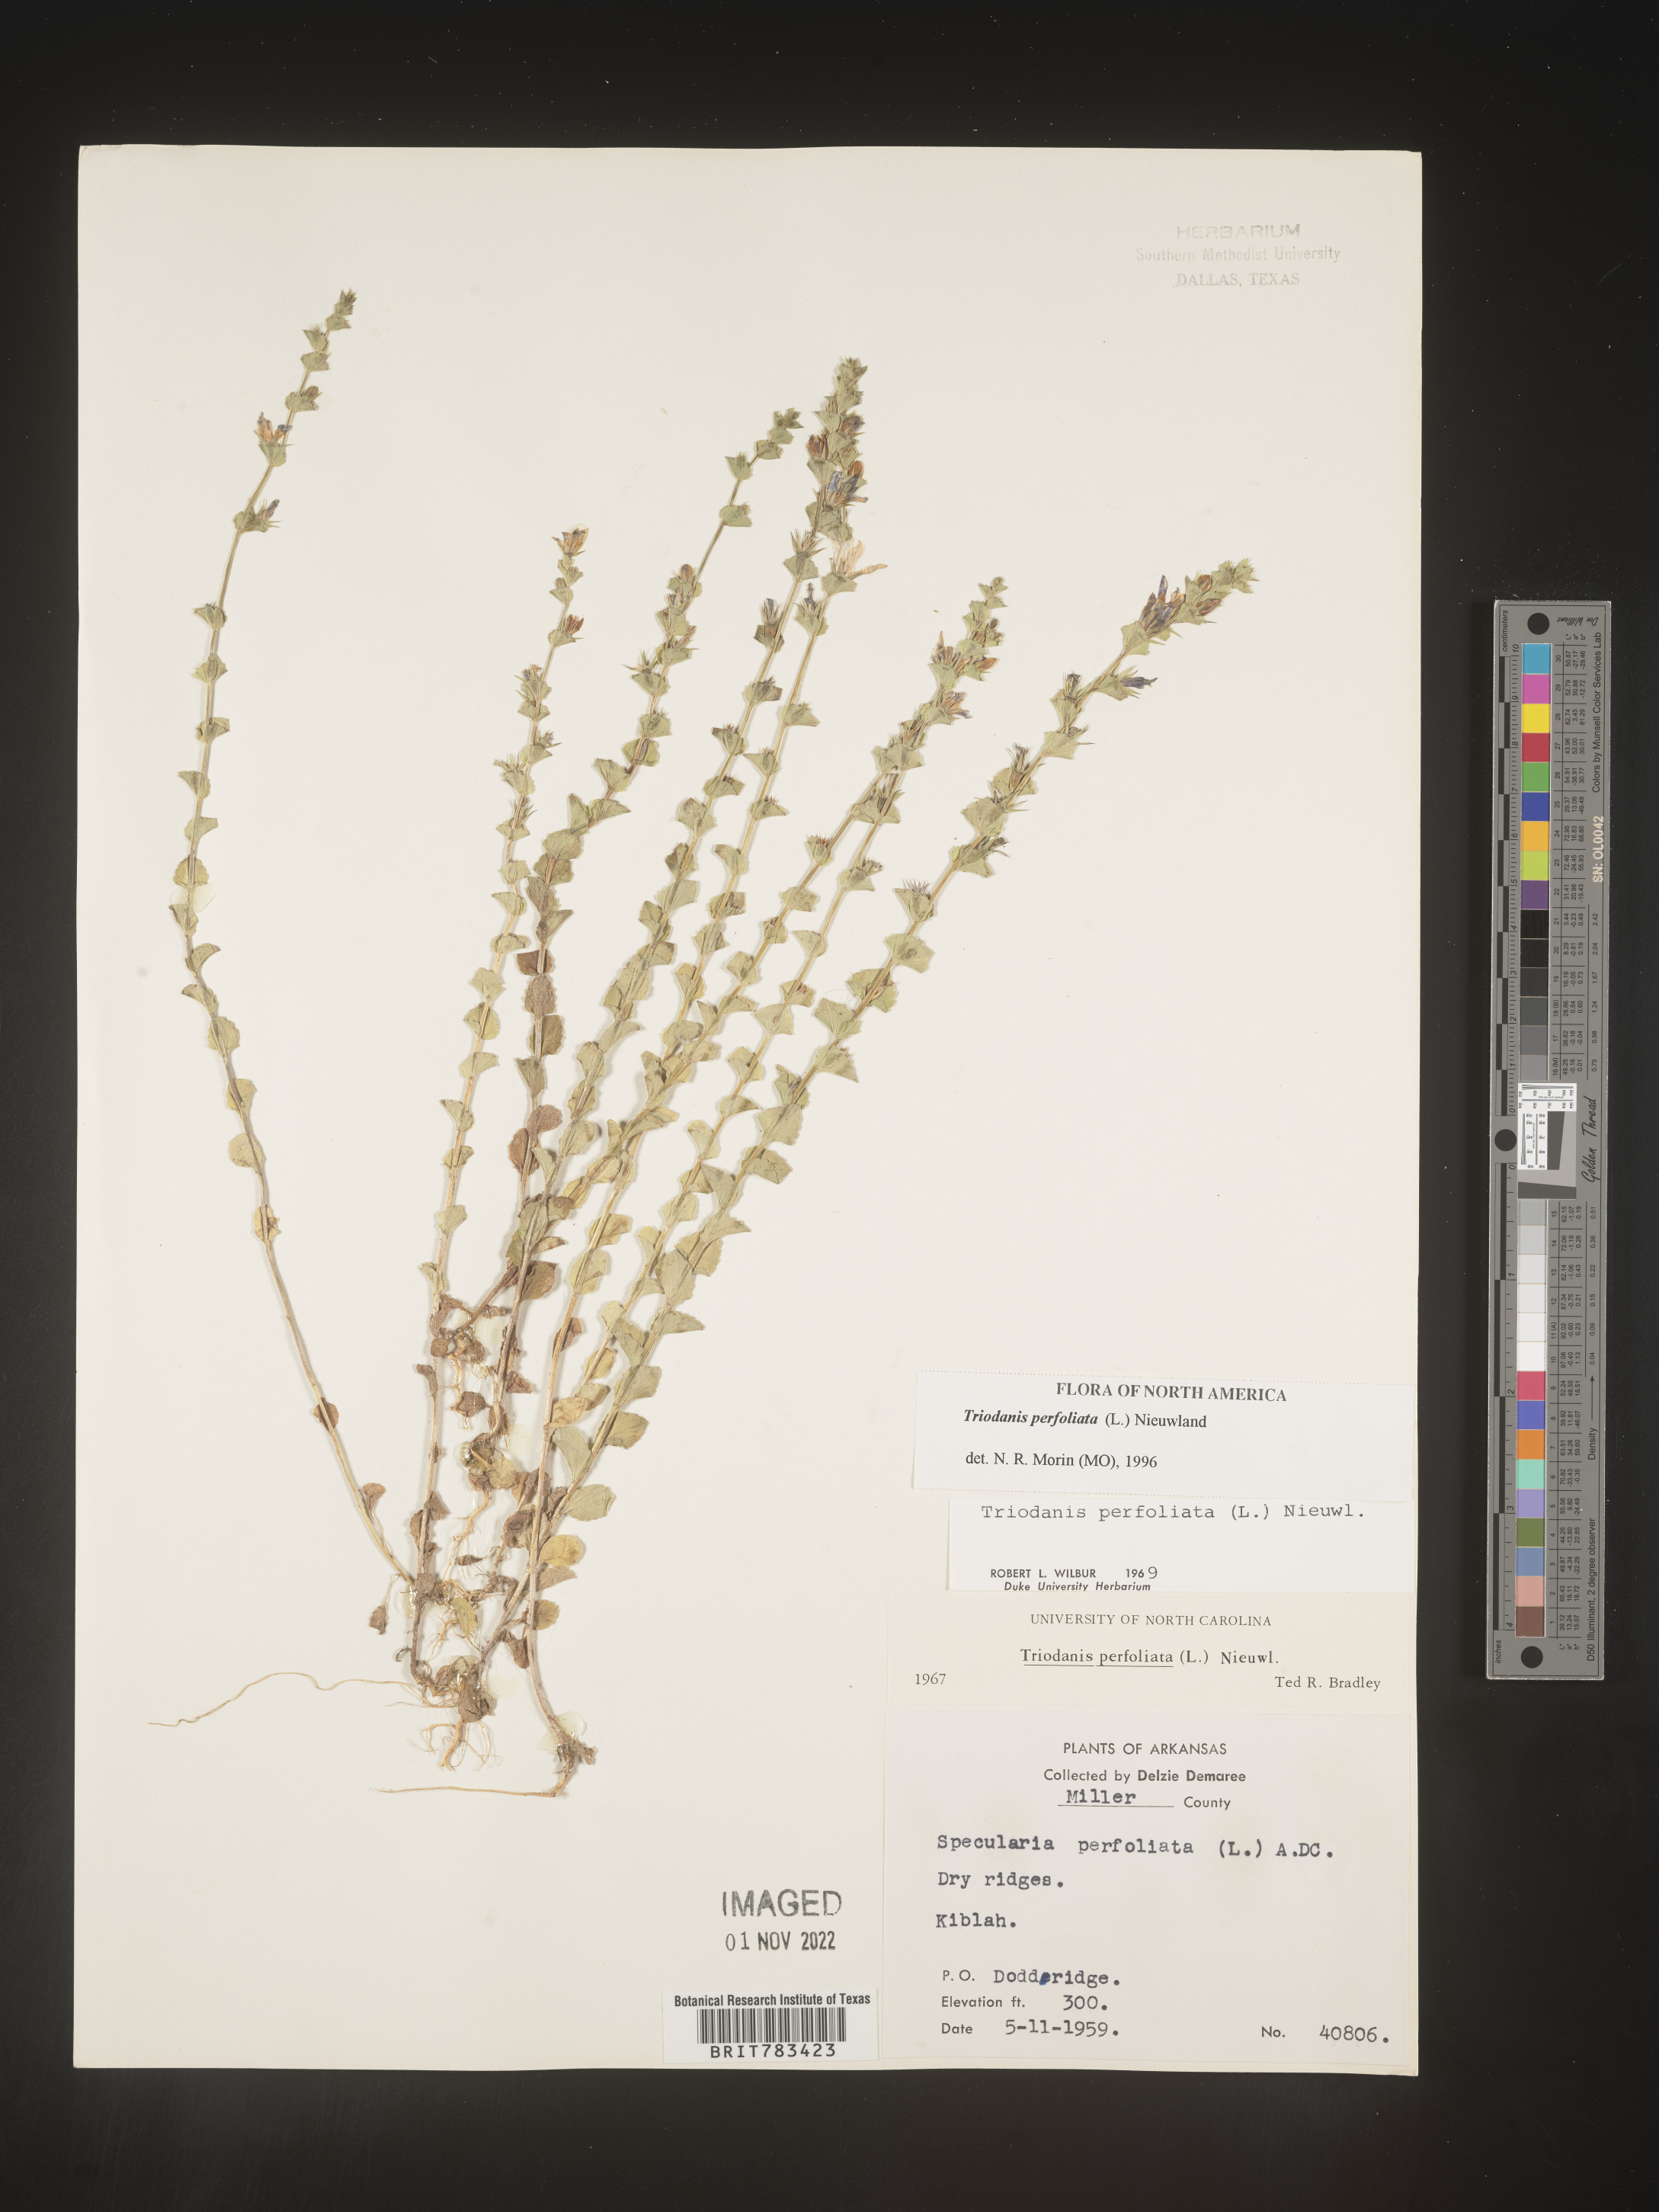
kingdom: Plantae
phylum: Tracheophyta
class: Magnoliopsida
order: Asterales
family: Campanulaceae
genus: Triodanis
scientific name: Triodanis perfoliata
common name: Clasping venus' looking-glass
